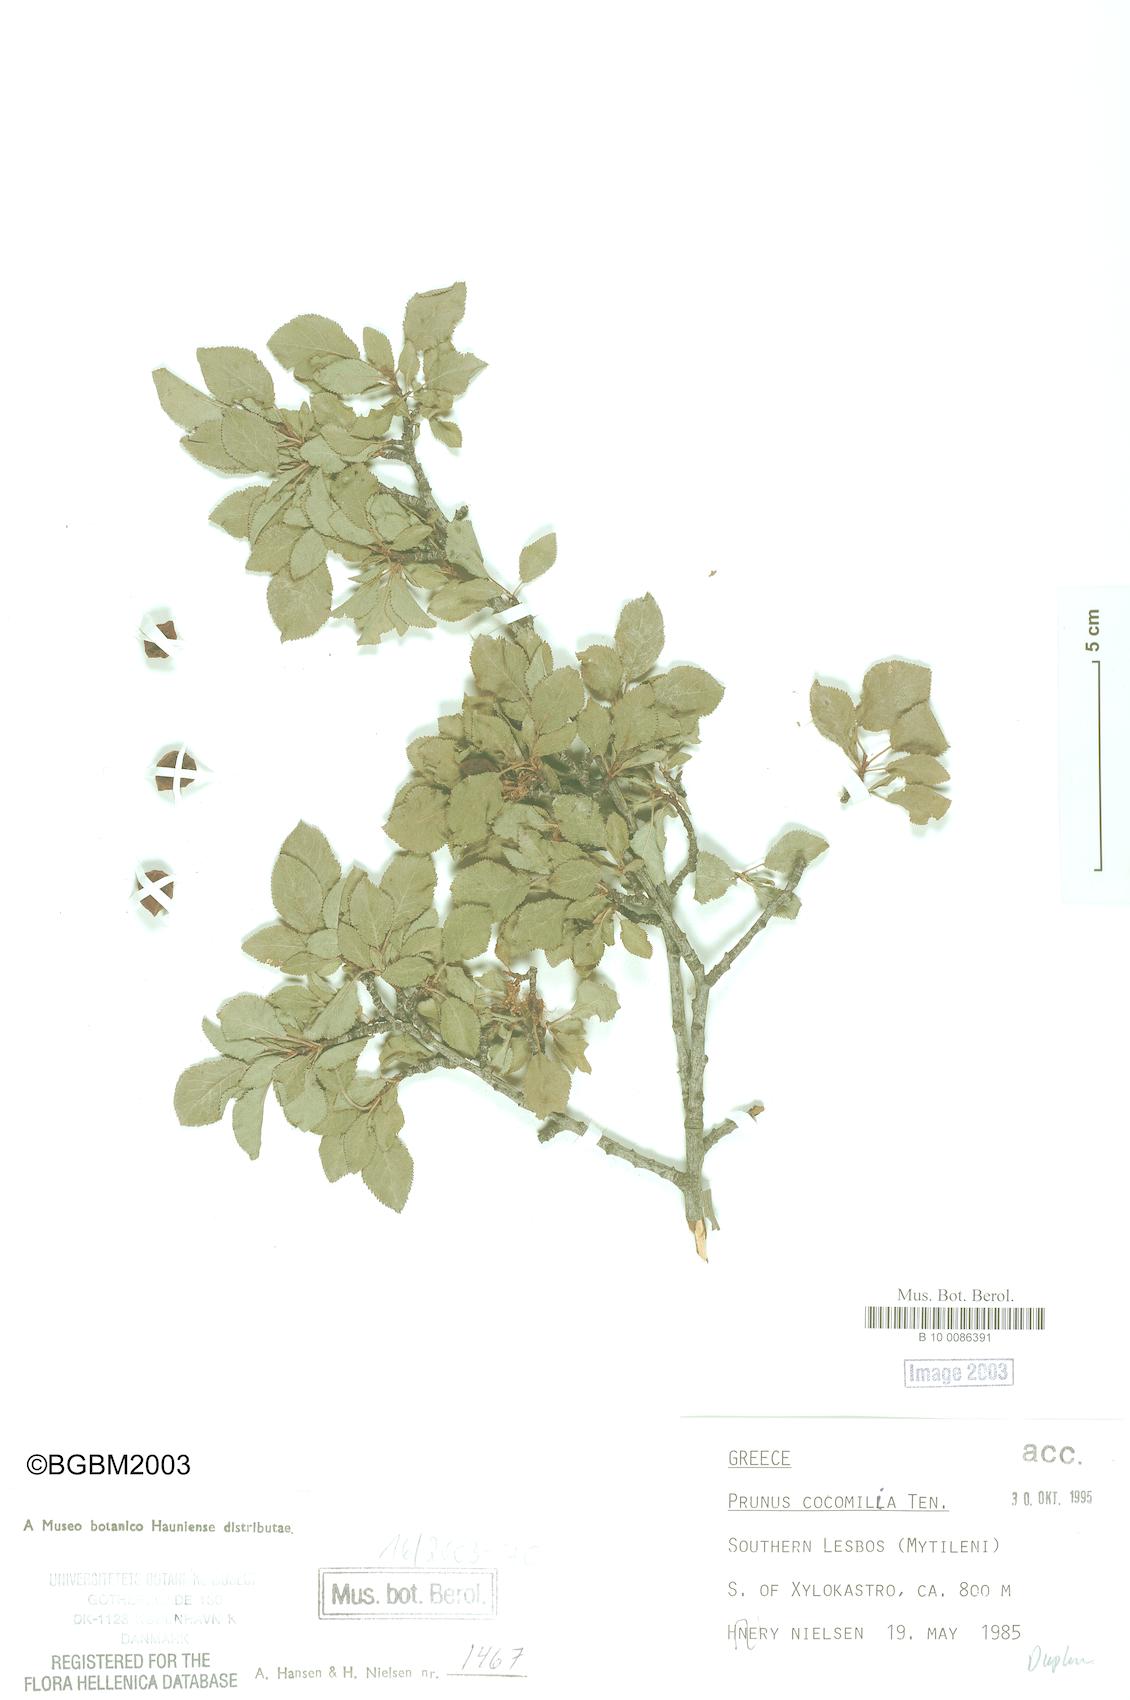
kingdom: Plantae
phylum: Tracheophyta
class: Magnoliopsida
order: Rosales
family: Rosaceae
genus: Prunus
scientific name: Prunus cocomilia
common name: Italian plum
